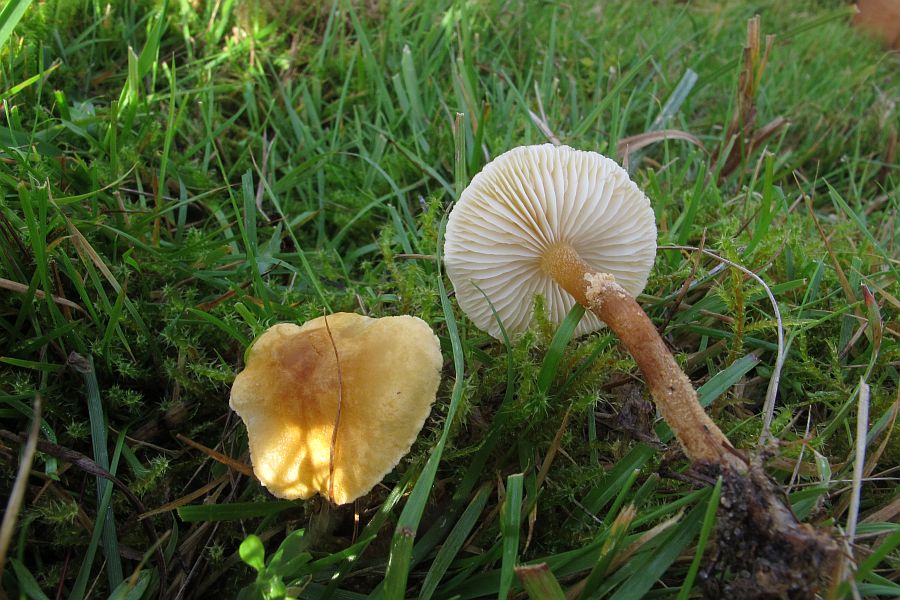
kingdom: Fungi
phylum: Basidiomycota
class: Agaricomycetes
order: Agaricales
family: Tricholomataceae
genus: Cystoderma
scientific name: Cystoderma amianthinum
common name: okkergul grynhat
